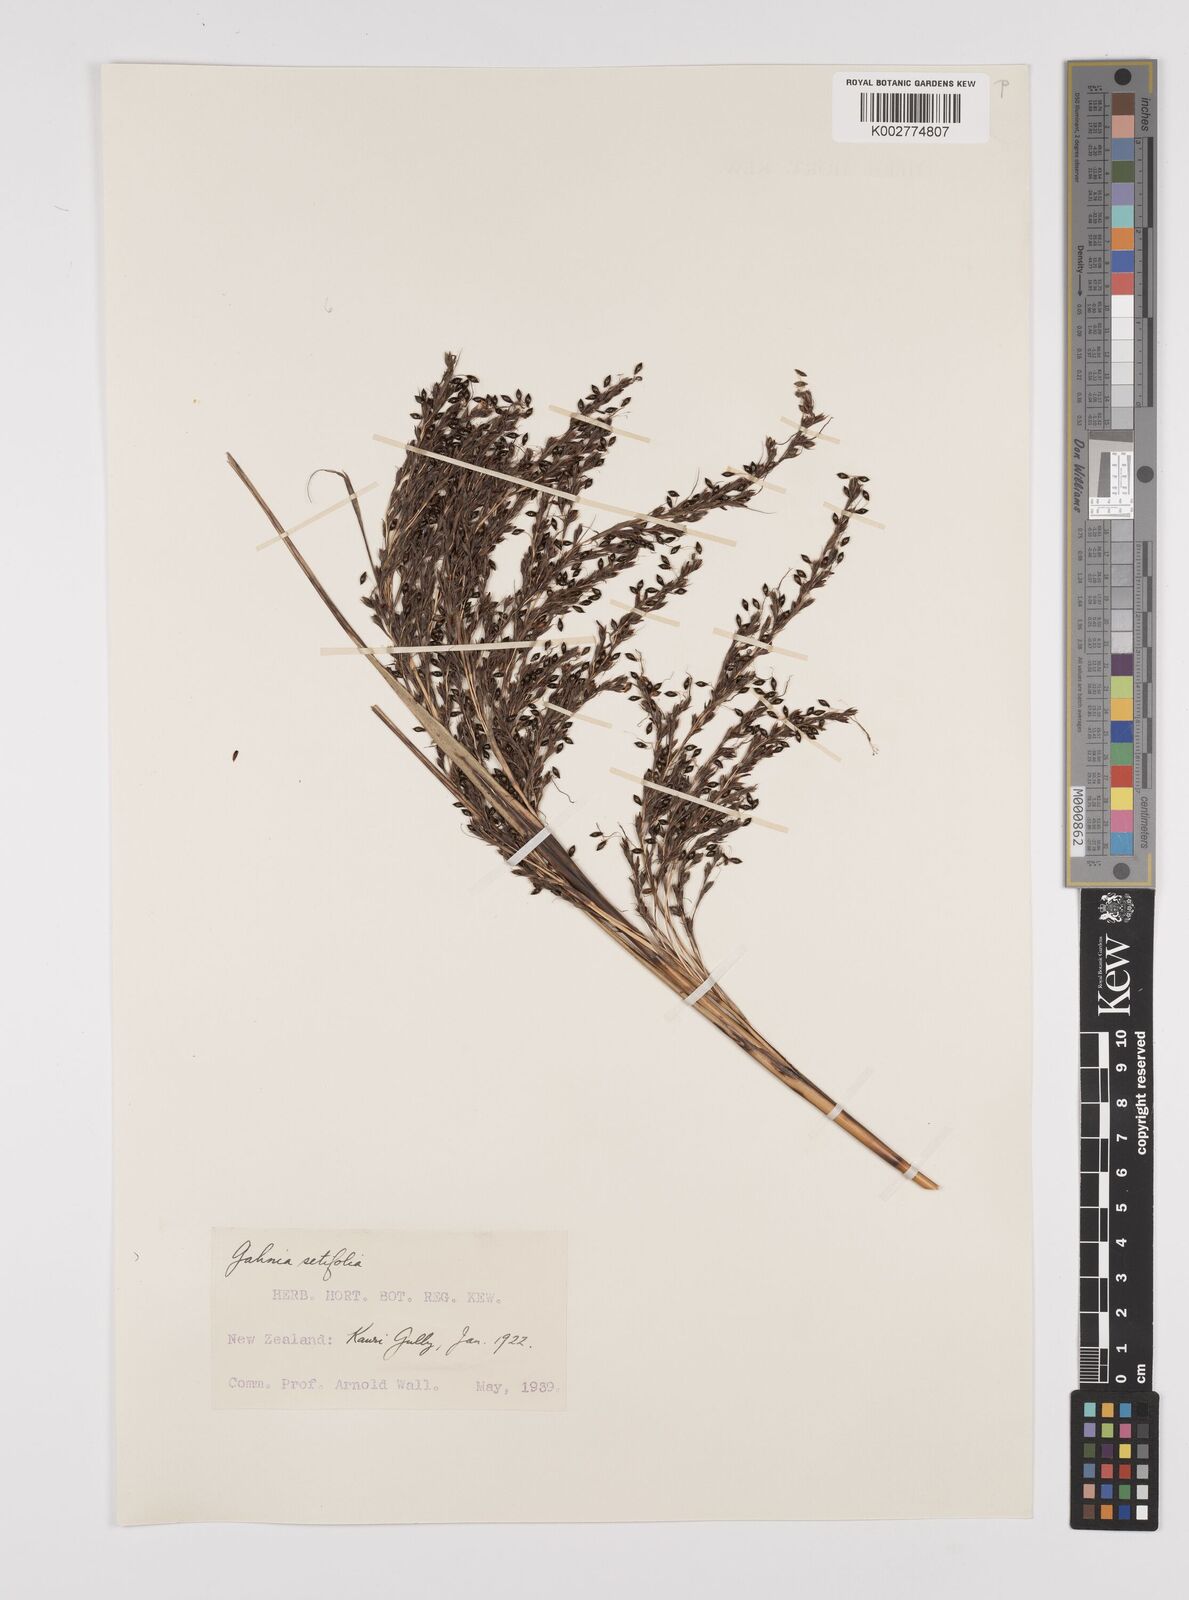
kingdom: Plantae
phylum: Tracheophyta
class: Liliopsida
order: Poales
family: Cyperaceae
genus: Gahnia
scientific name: Gahnia setifolia
